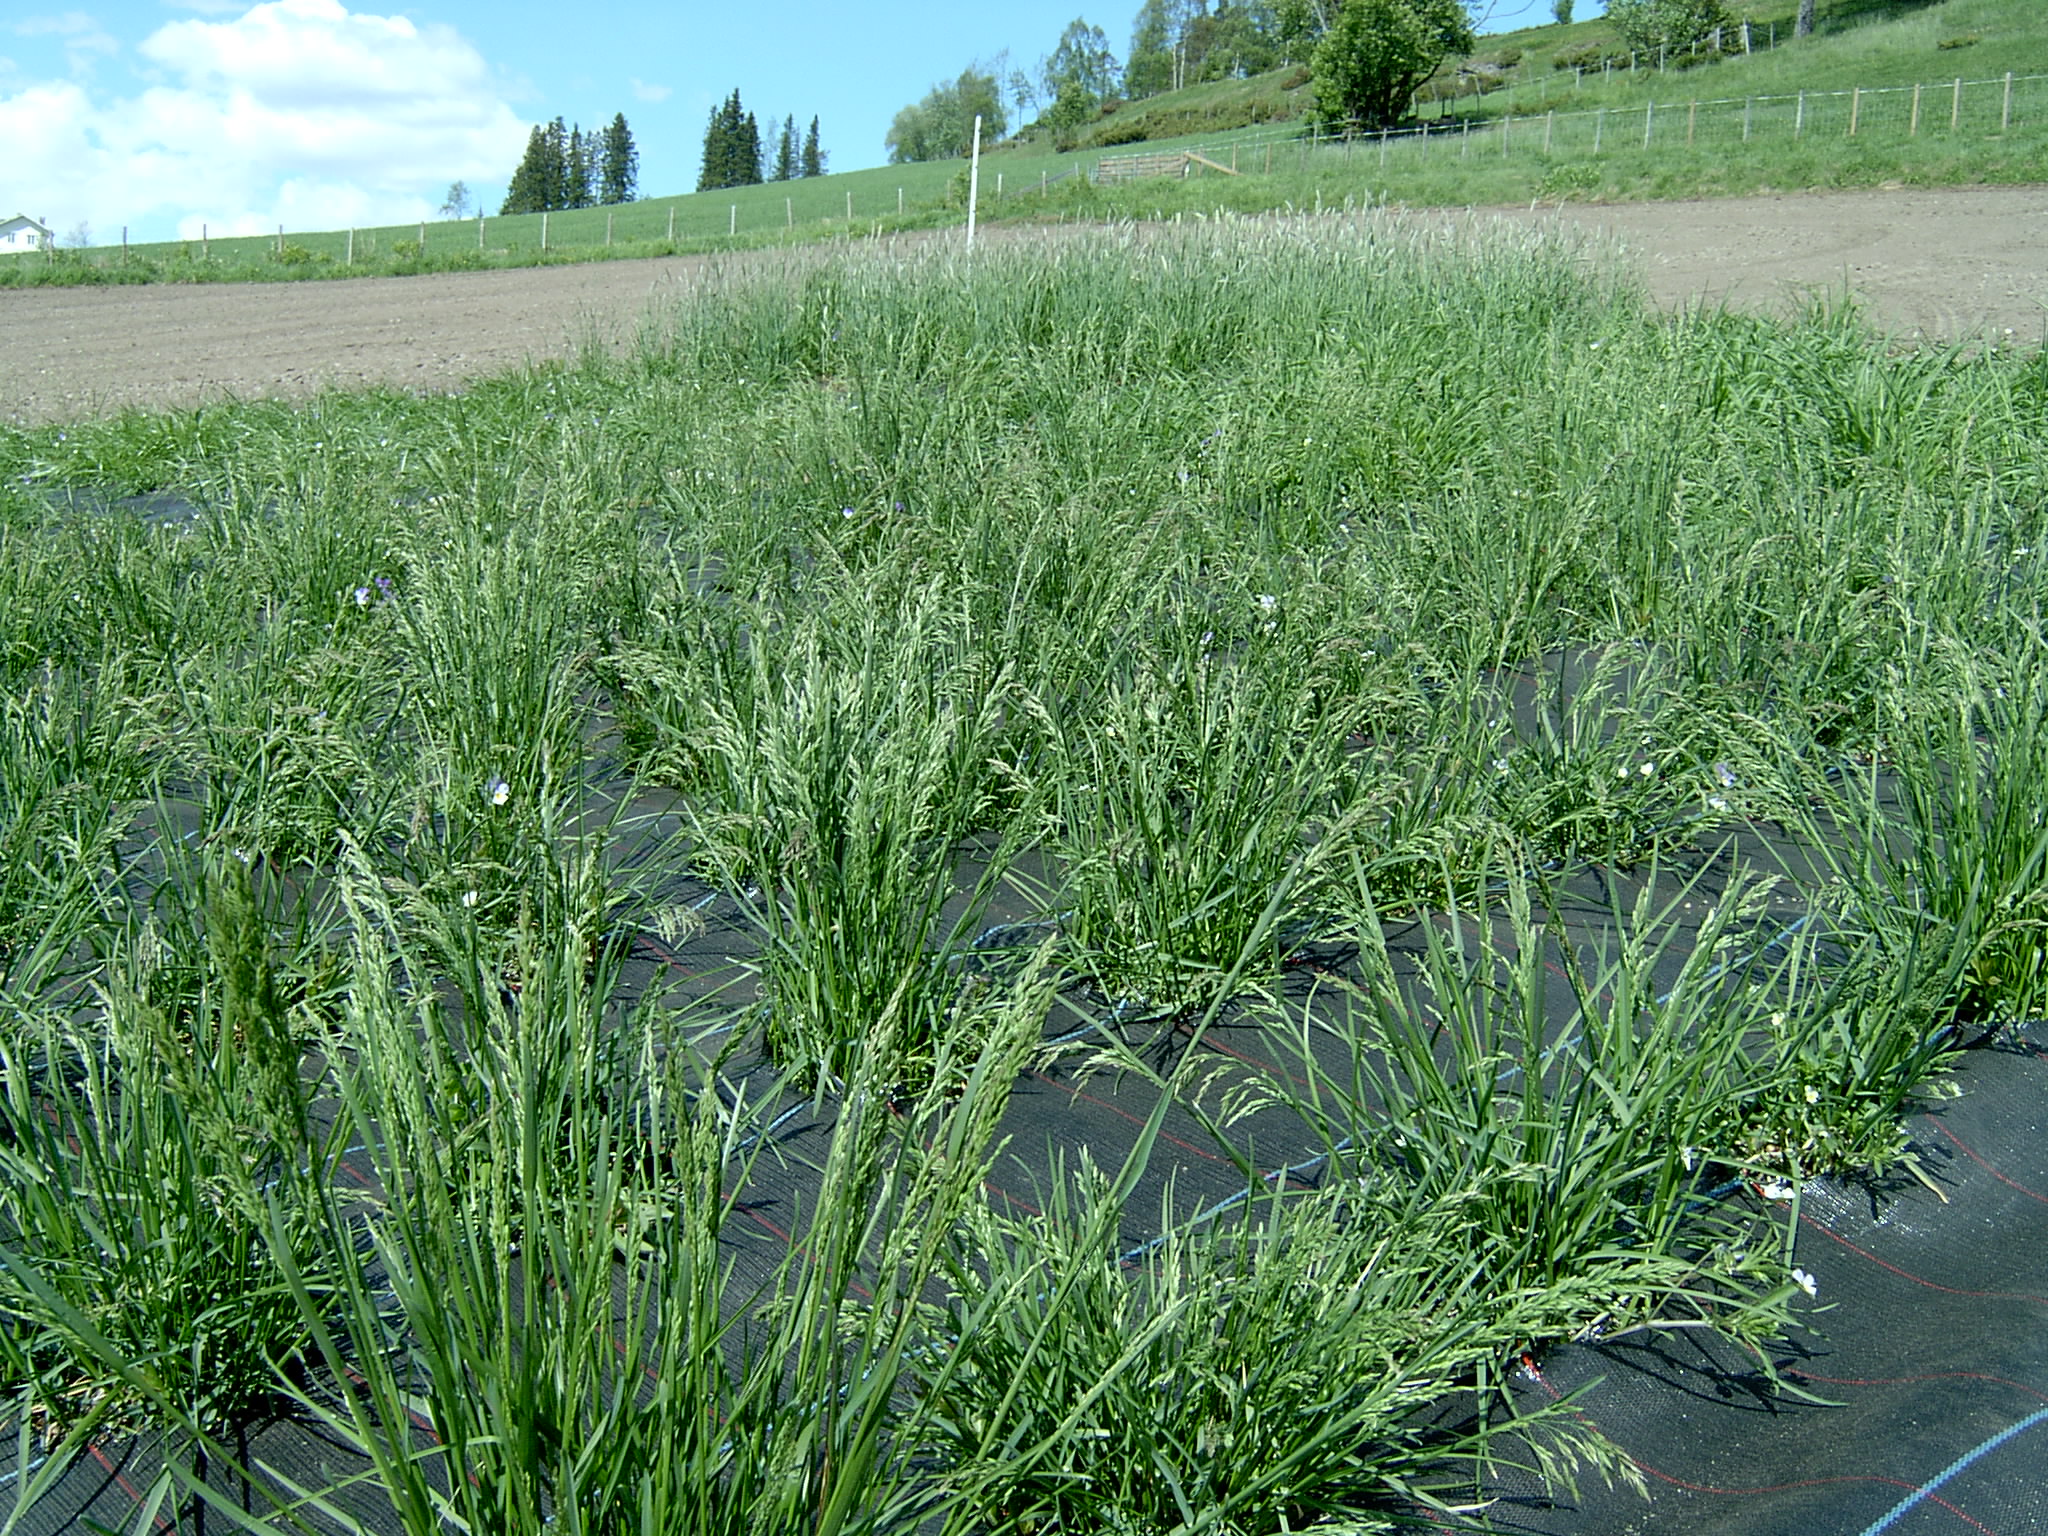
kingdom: Plantae
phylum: Tracheophyta
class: Liliopsida
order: Poales
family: Poaceae
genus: Poa
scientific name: Poa pratensis
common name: Kentucky bluegrass
